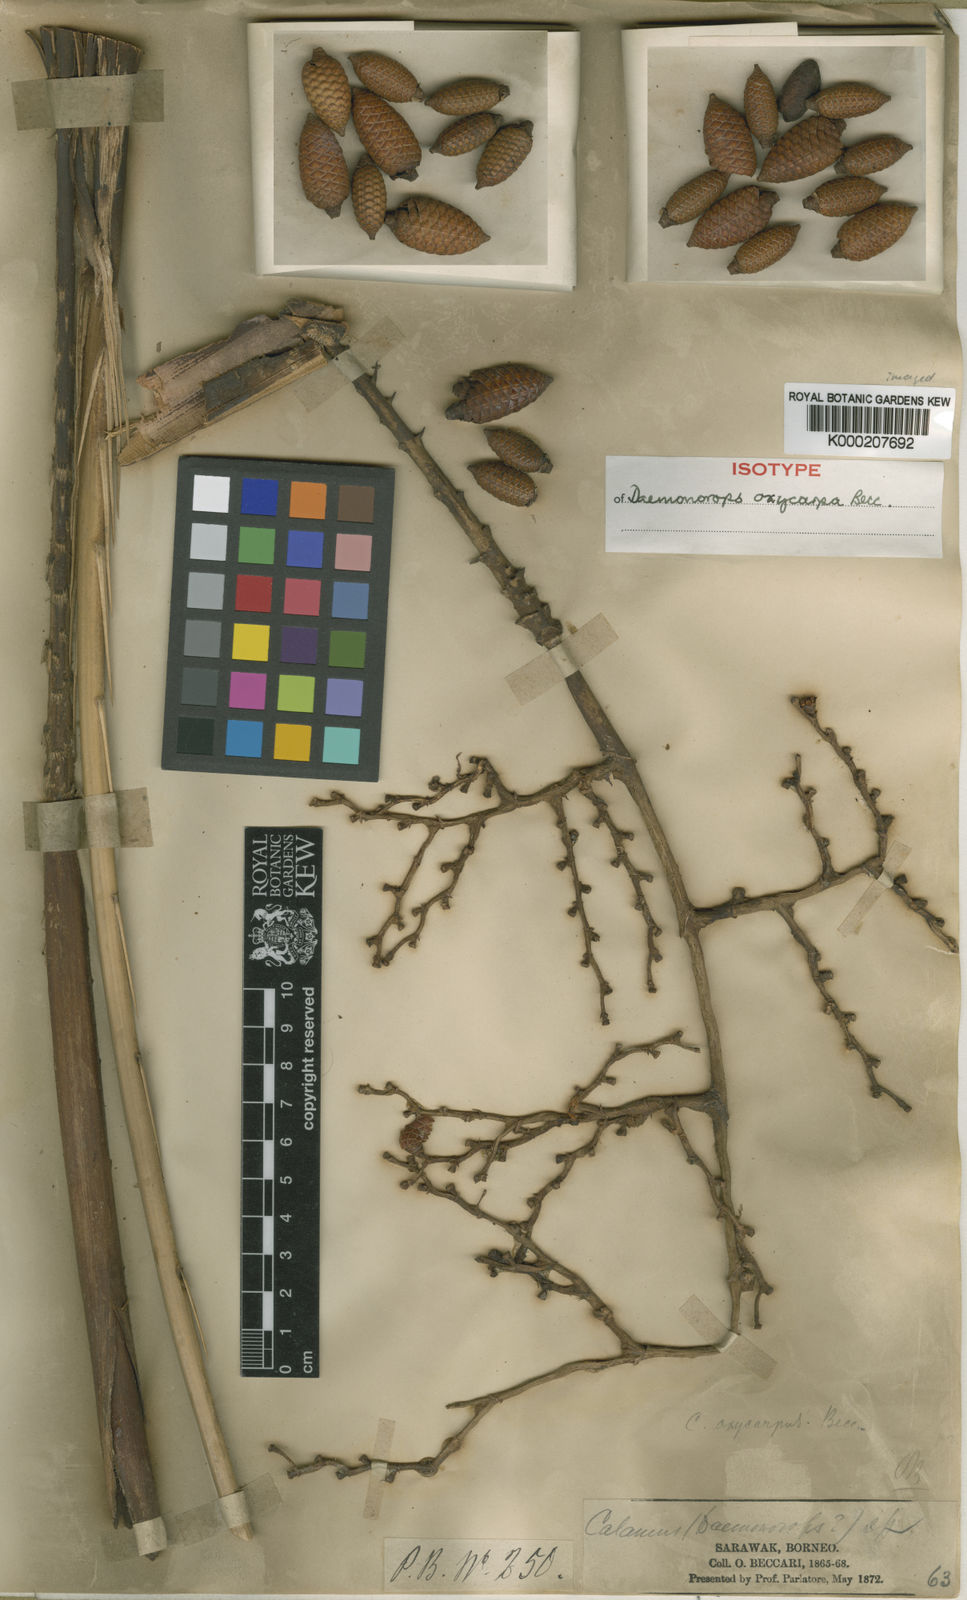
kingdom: Plantae
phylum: Tracheophyta
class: Liliopsida
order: Arecales
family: Arecaceae
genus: Calamus
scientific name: Calamus oxycoccus
